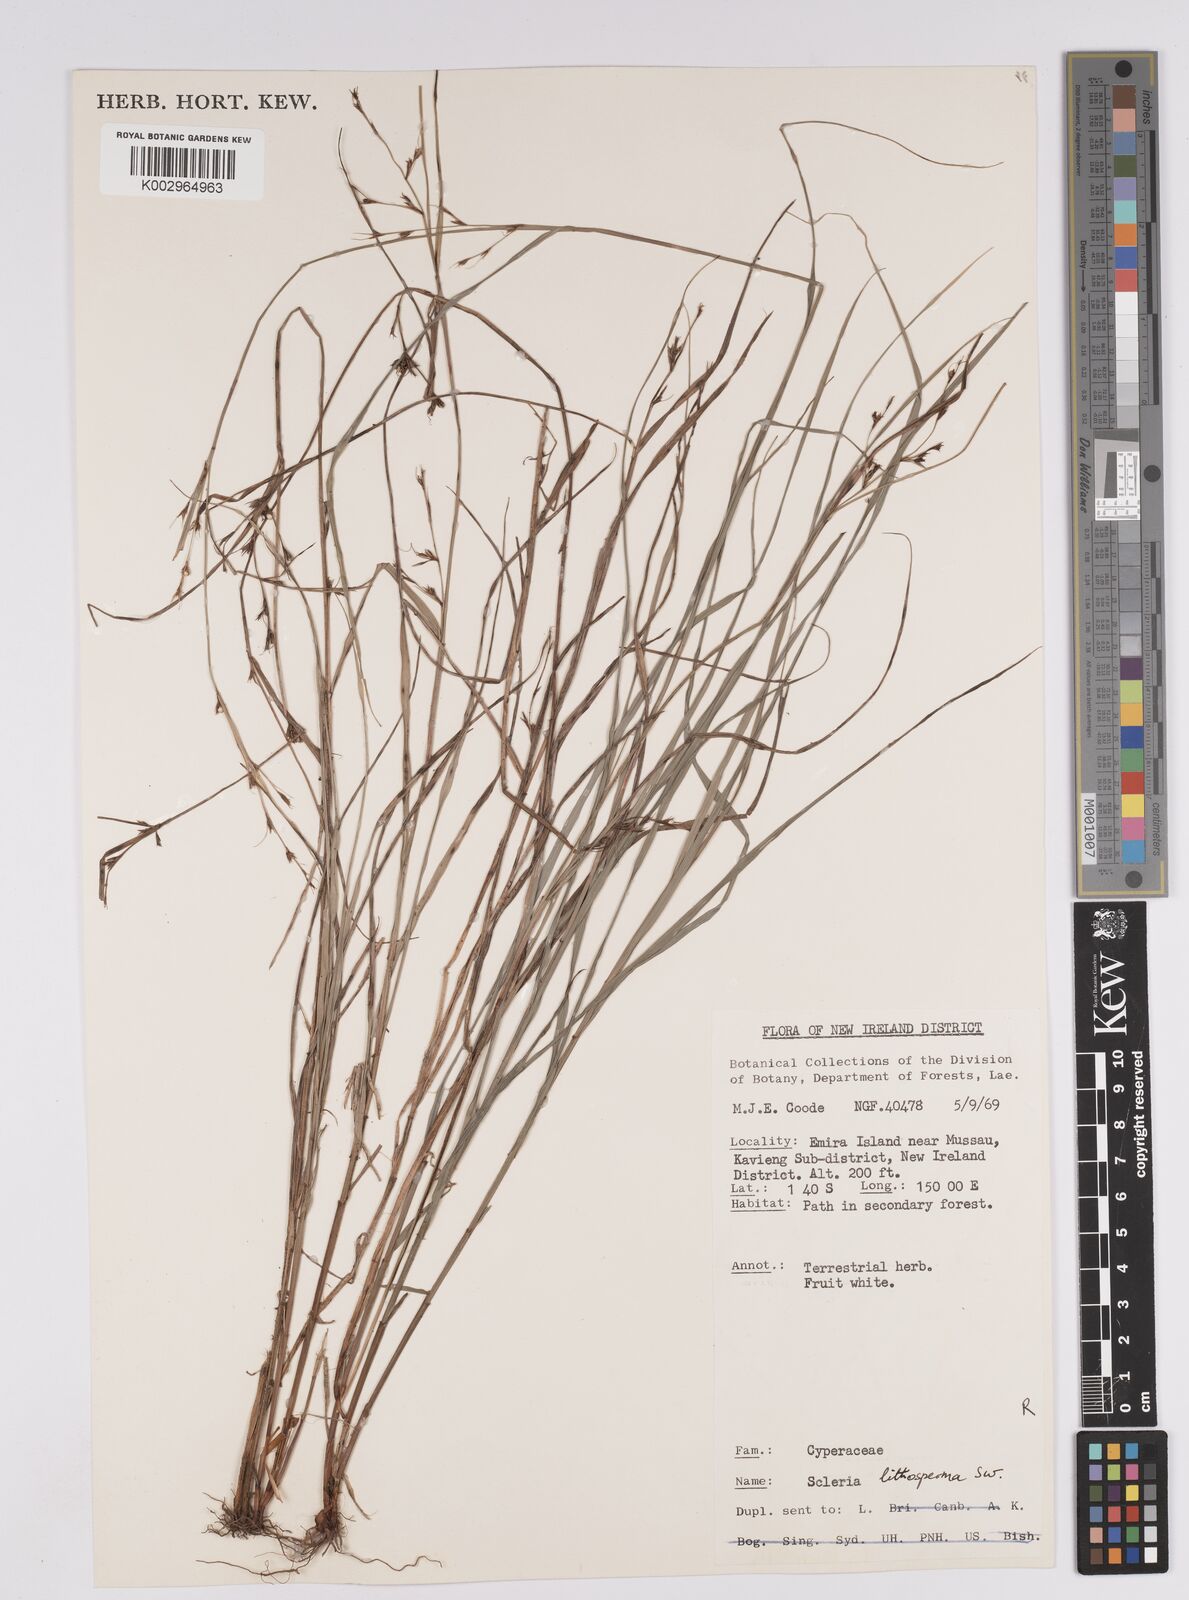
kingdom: Plantae
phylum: Tracheophyta
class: Liliopsida
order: Poales
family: Cyperaceae
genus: Scleria
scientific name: Scleria lithosperma
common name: Florida keys nut-rush
